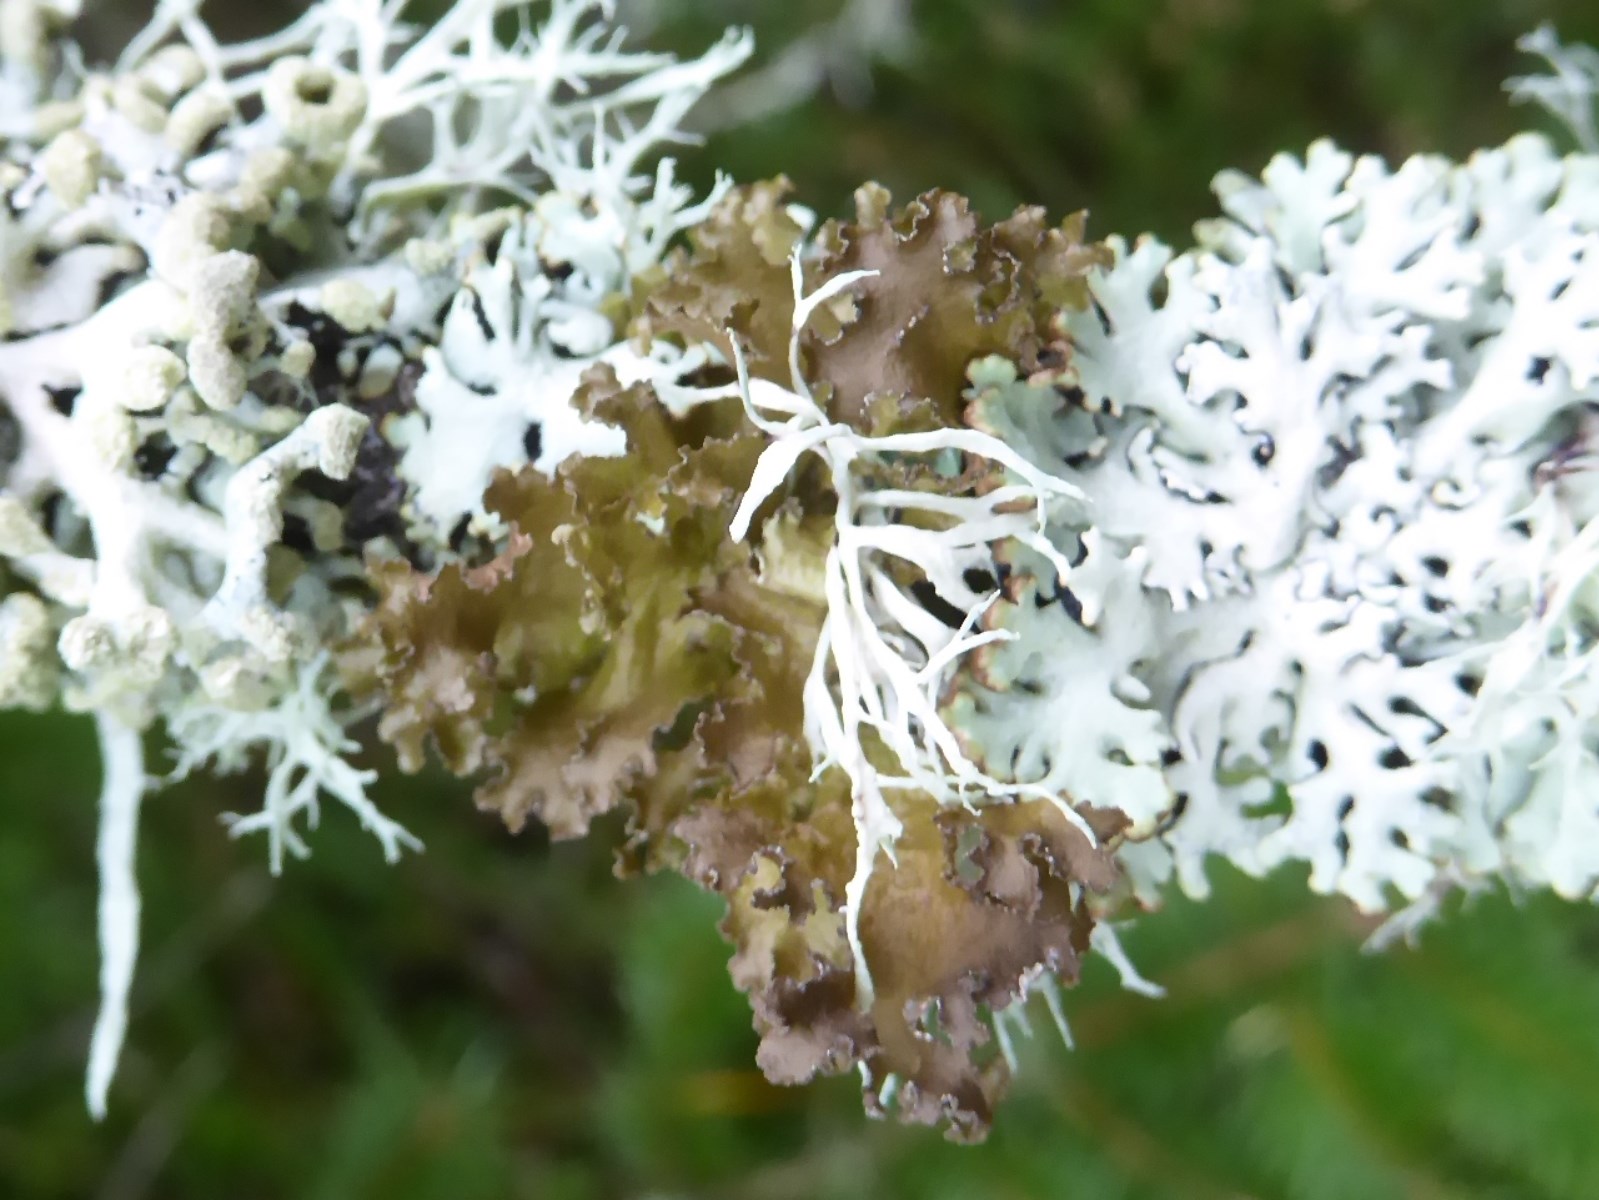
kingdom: Fungi
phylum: Ascomycota
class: Lecanoromycetes
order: Lecanorales
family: Parmeliaceae
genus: Nephromopsis
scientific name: Nephromopsis chlorophylla
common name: olivenbrun kruslav
